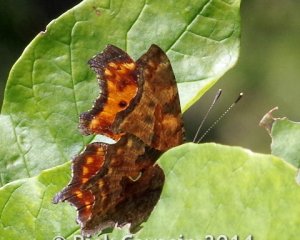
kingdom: Animalia
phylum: Arthropoda
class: Insecta
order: Lepidoptera
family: Nymphalidae
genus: Polygonia
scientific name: Polygonia comma
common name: Eastern Comma
